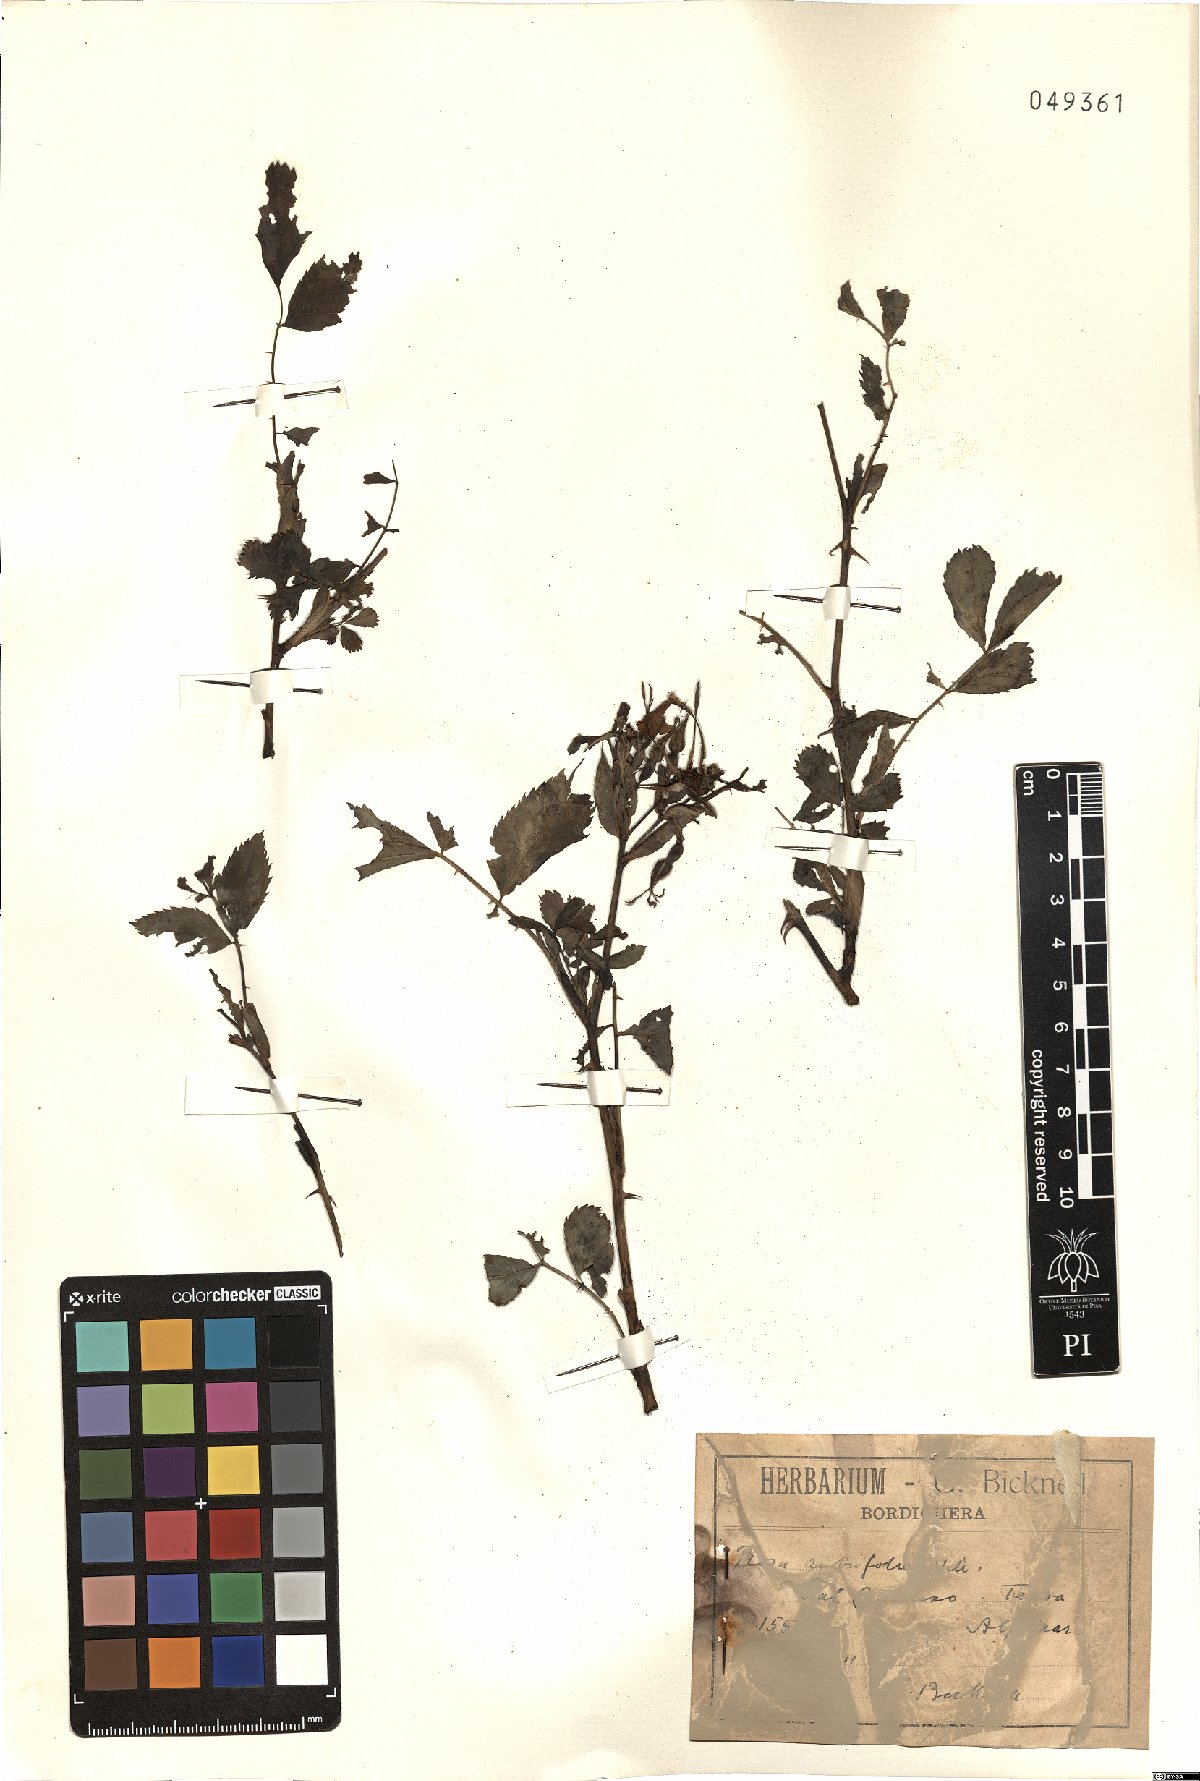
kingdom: Plantae
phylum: Tracheophyta
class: Magnoliopsida
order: Rosales
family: Rosaceae
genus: Rosa
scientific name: Rosa glauca
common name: Redleaf rose
